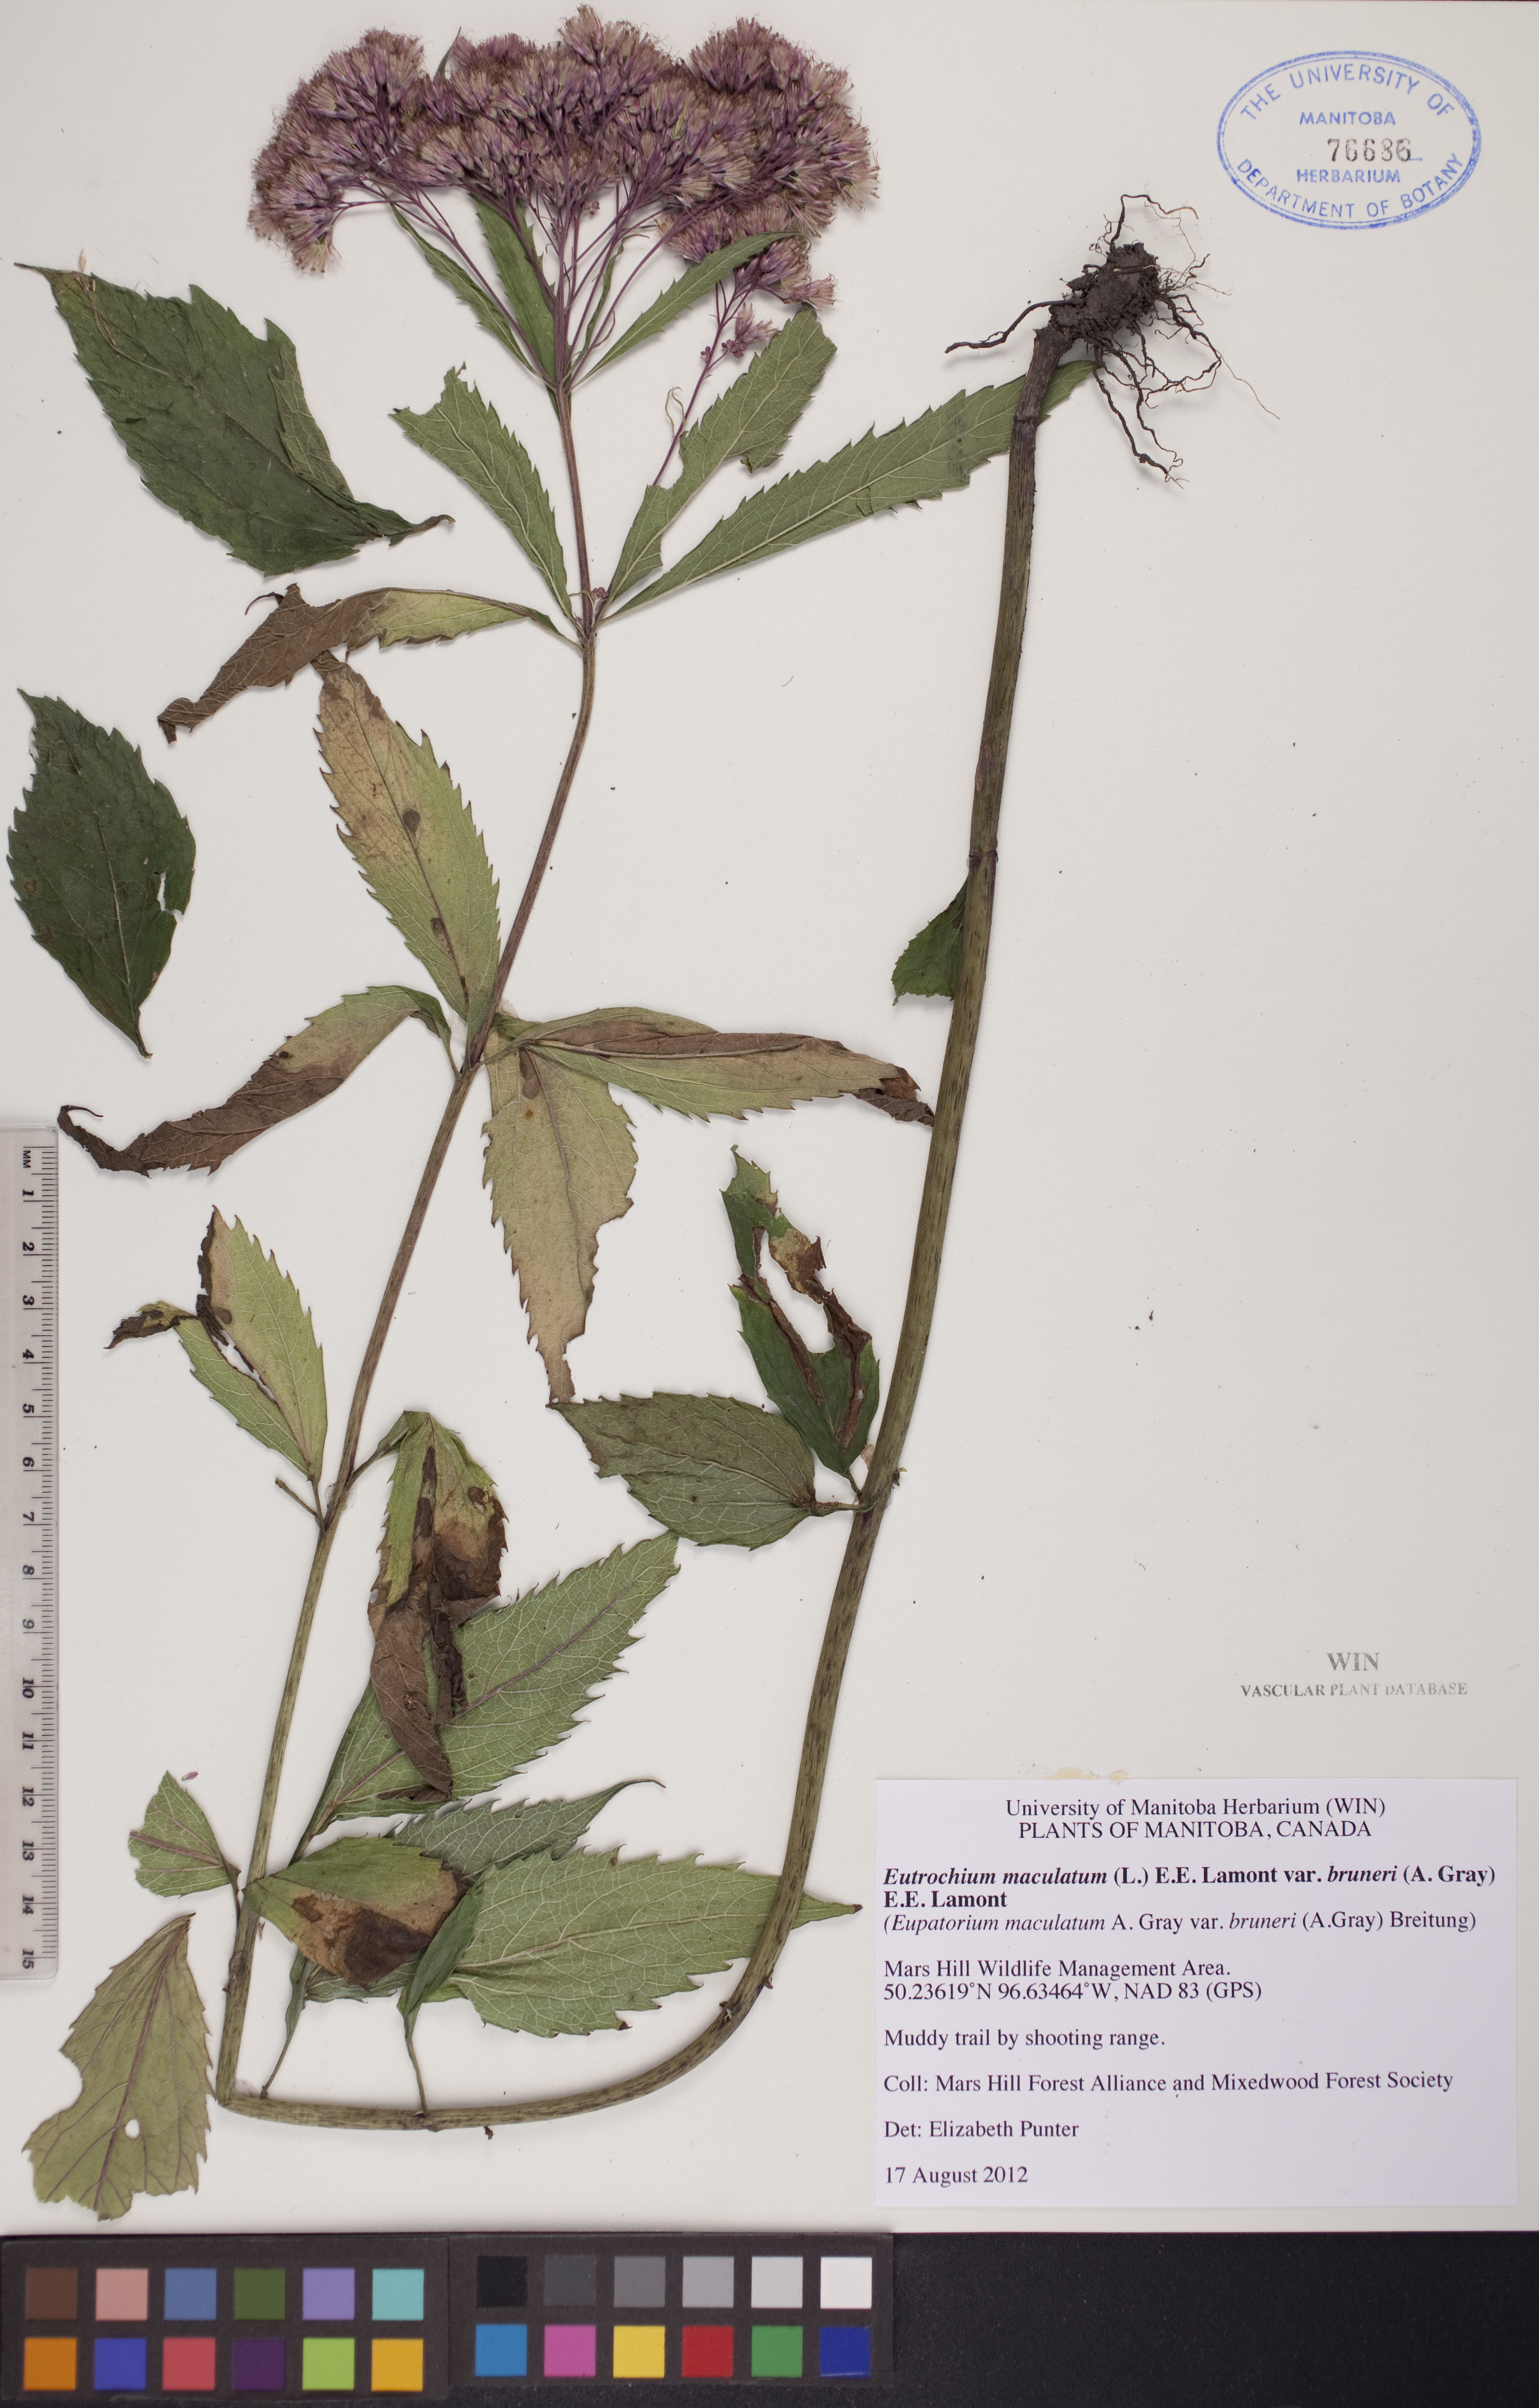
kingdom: Plantae
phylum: Tracheophyta
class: Magnoliopsida
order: Asterales
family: Asteraceae
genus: Eutrochium
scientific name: Eutrochium maculatum
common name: Spotted joe pye weed
